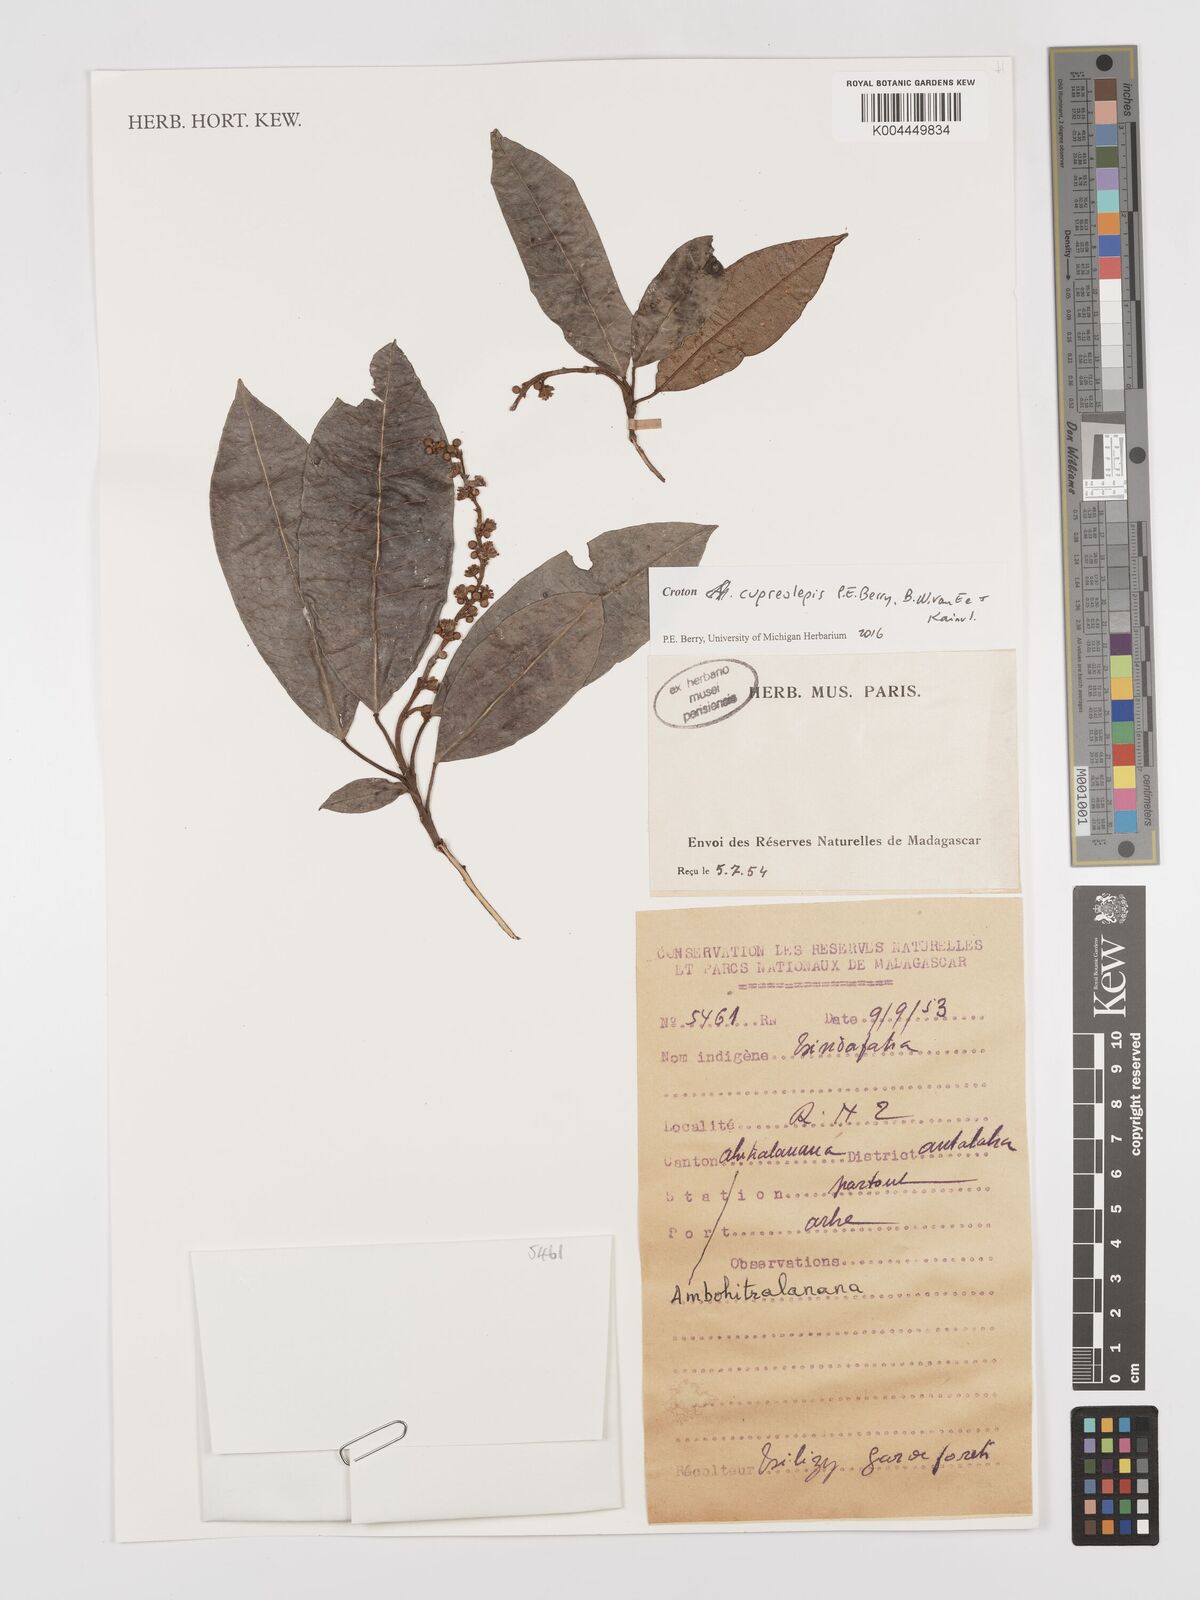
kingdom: Plantae
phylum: Tracheophyta
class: Magnoliopsida
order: Malpighiales
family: Euphorbiaceae
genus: Croton
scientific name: Croton cupreolepis
